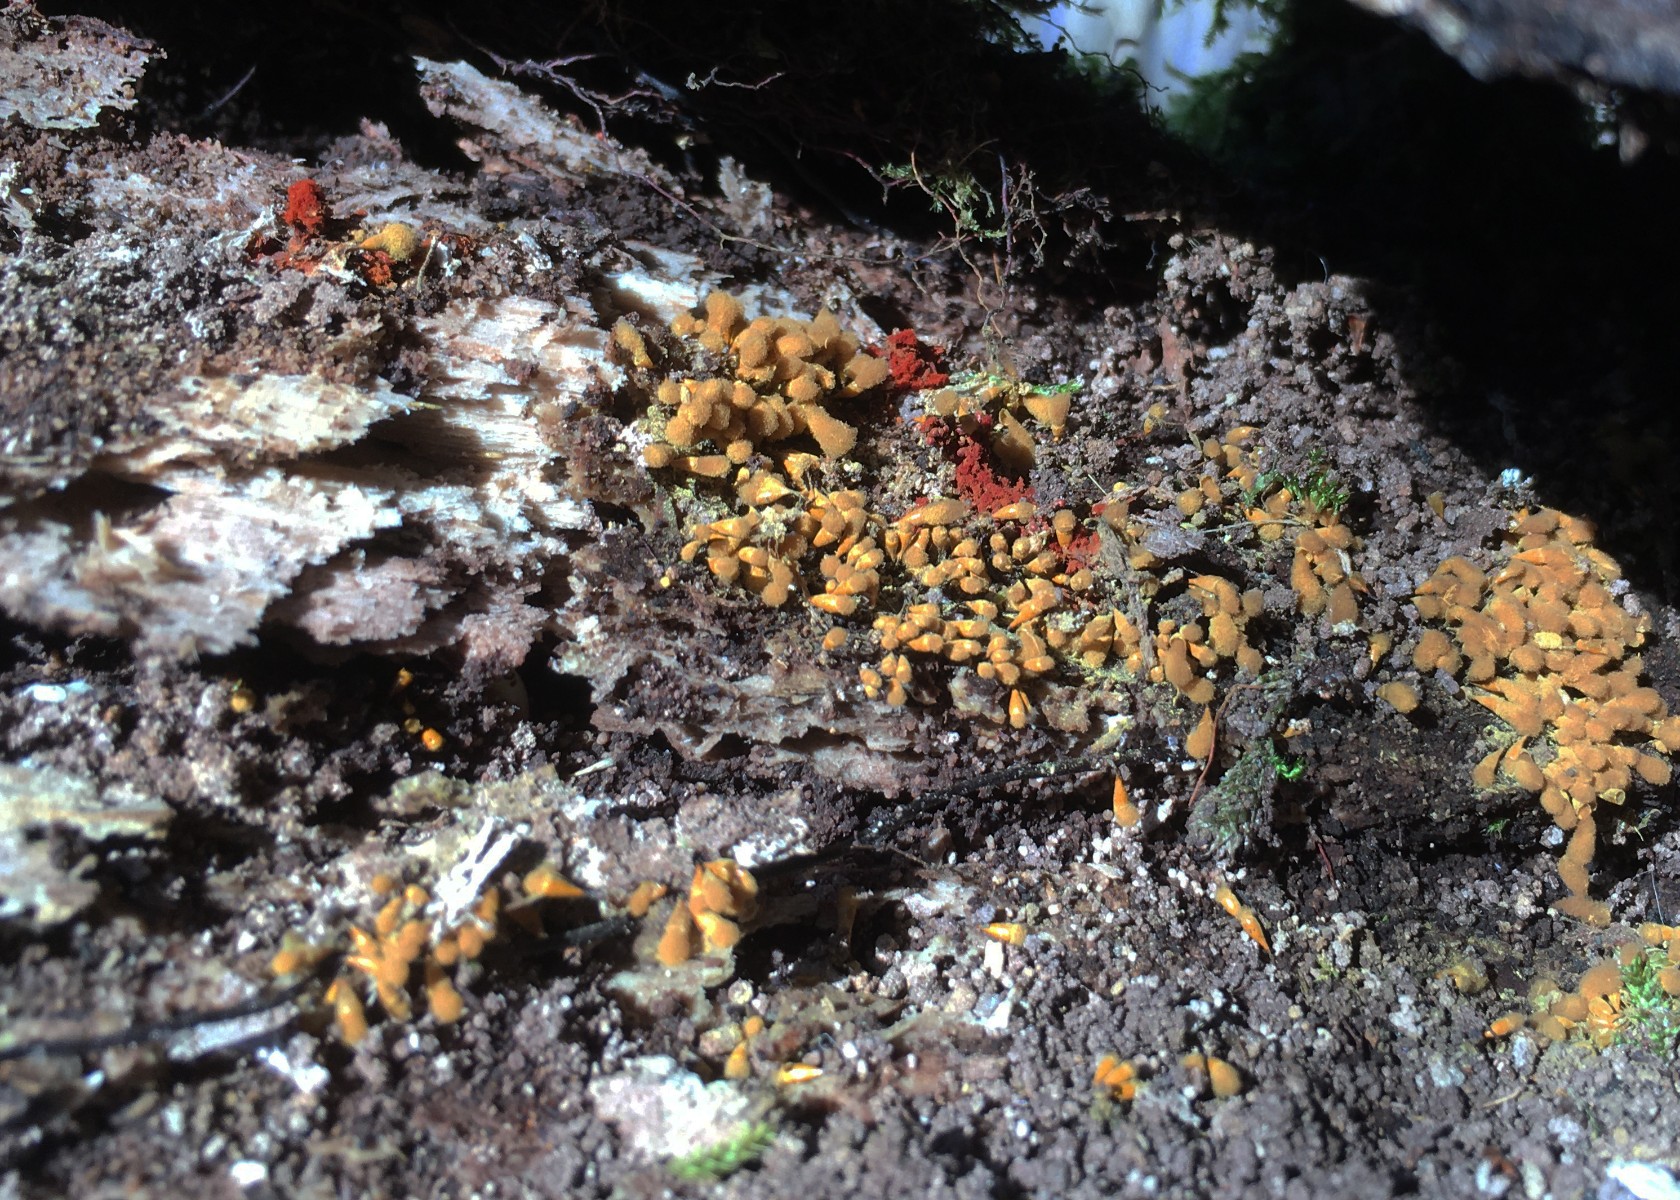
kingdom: Protozoa
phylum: Mycetozoa
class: Myxomycetes
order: Trichiales
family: Arcyriaceae
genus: Hemitrichia
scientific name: Hemitrichia clavata
